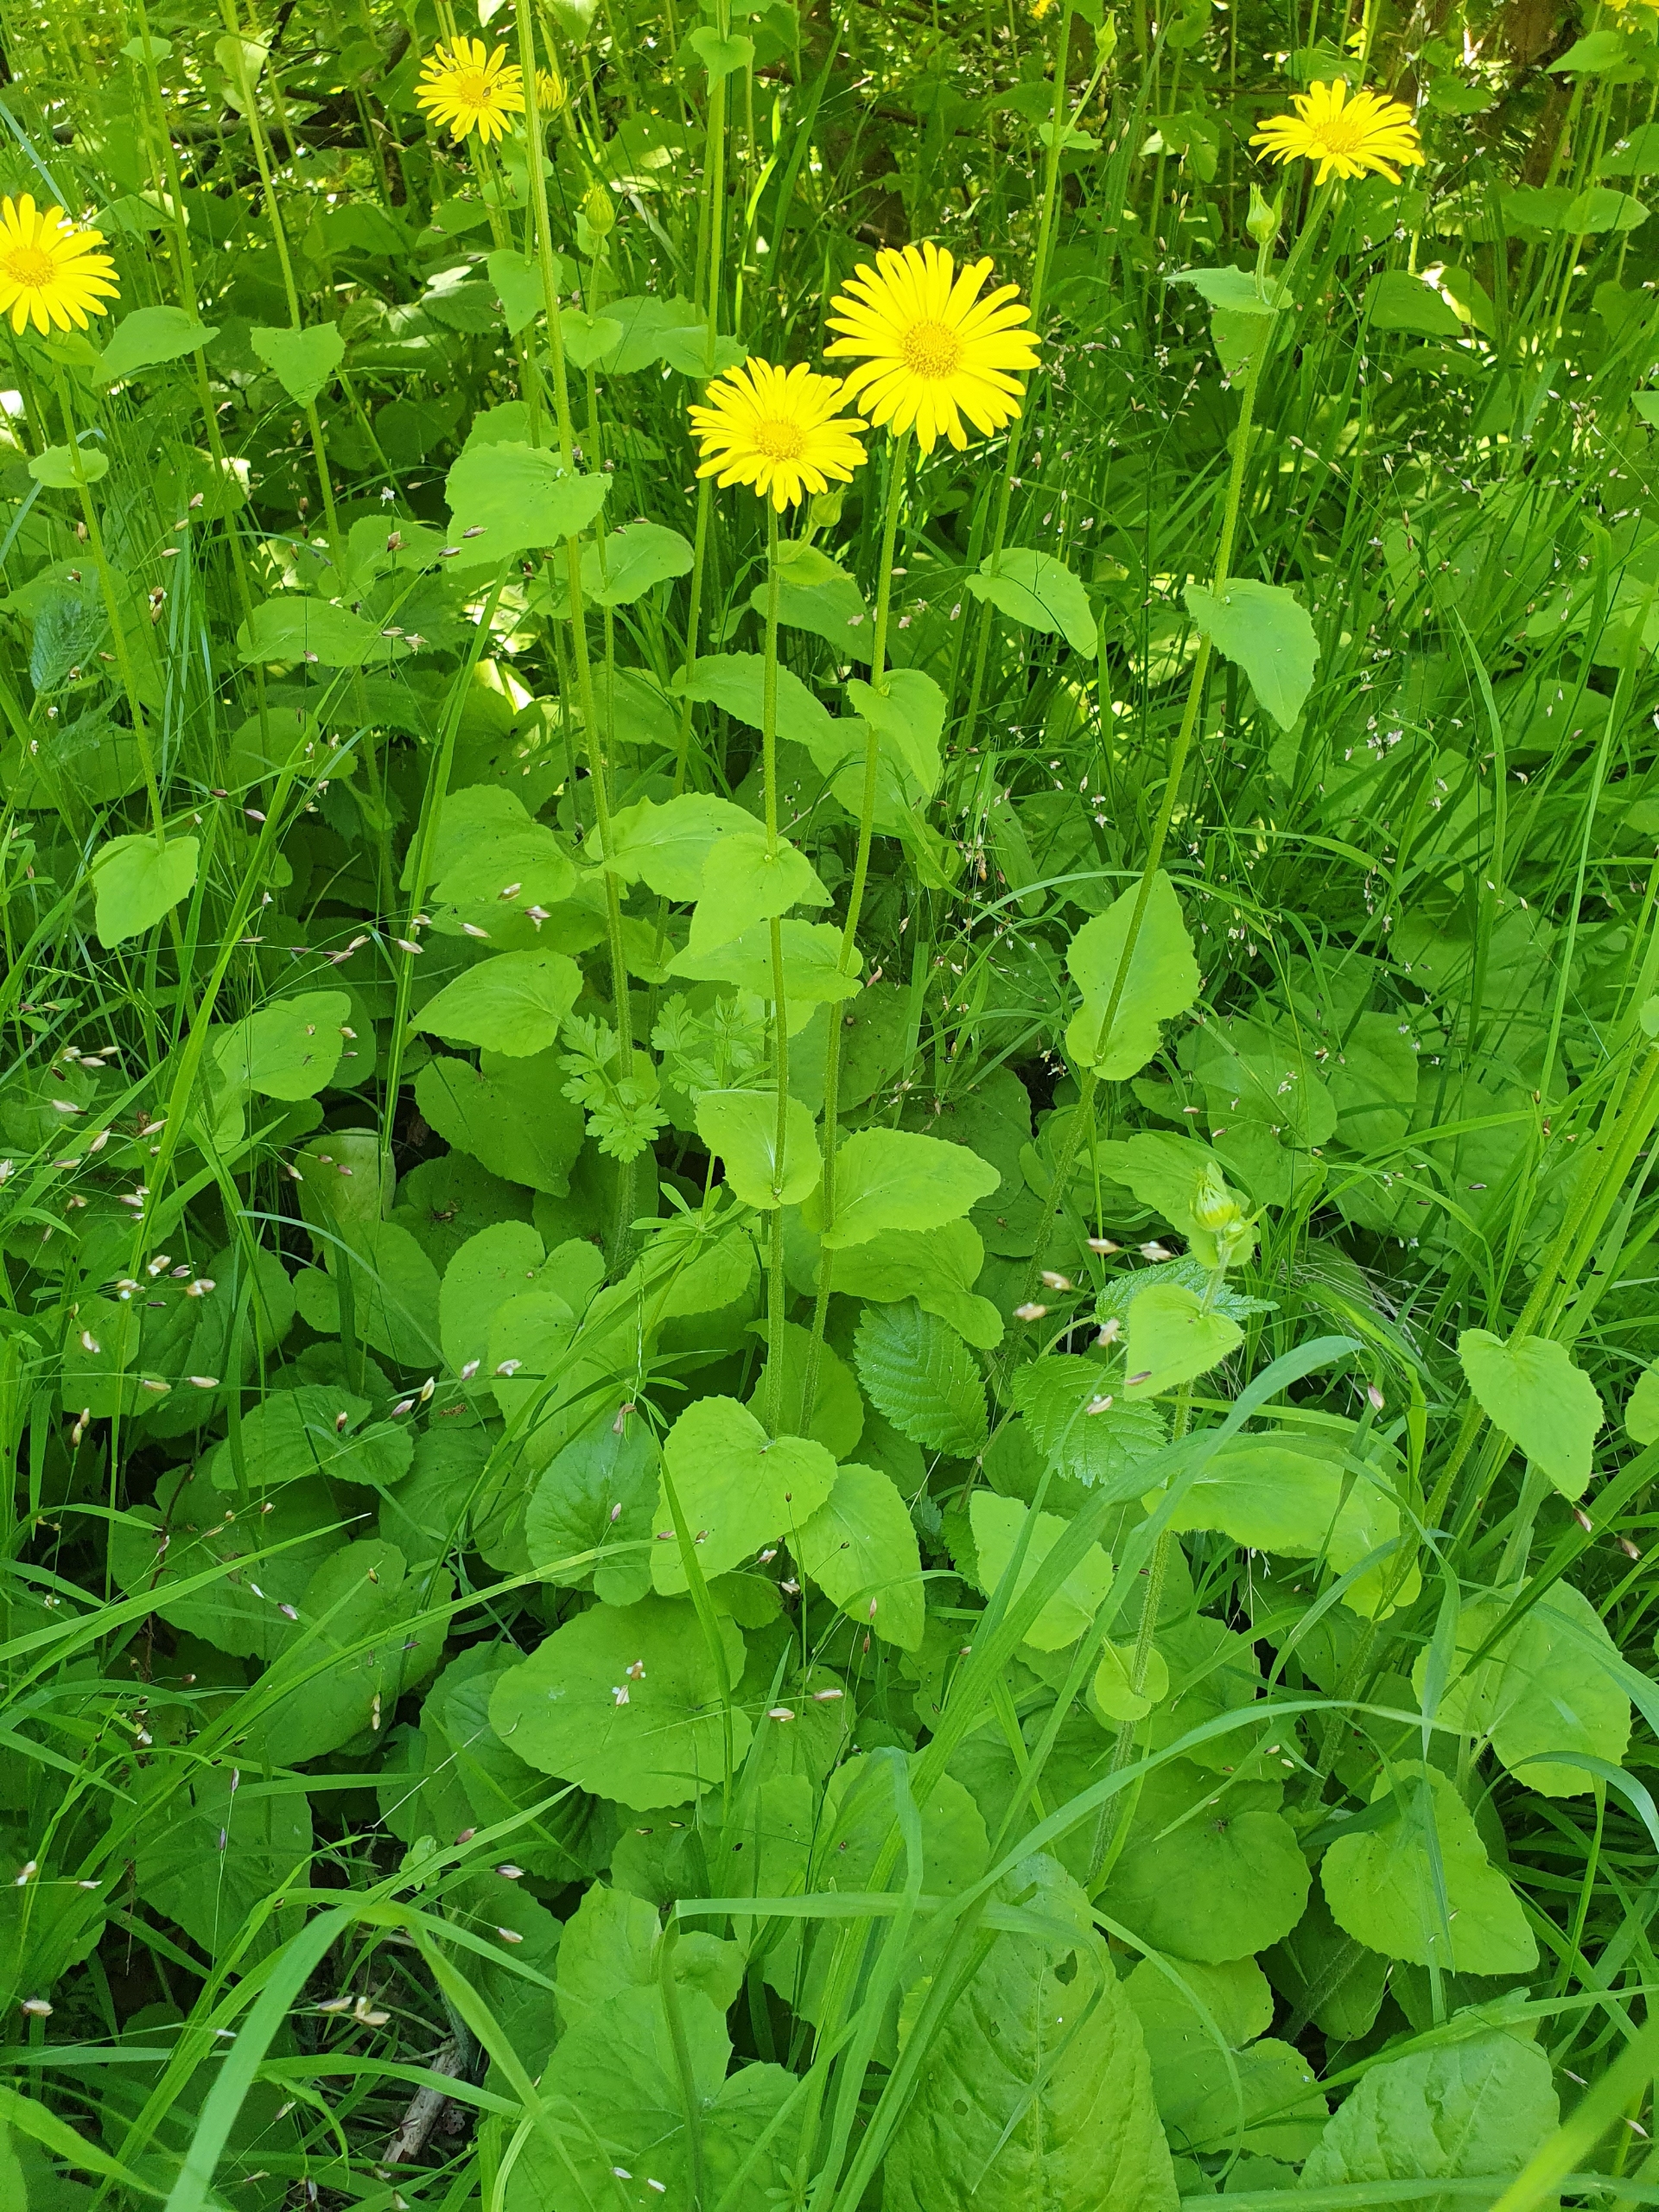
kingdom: Plantae
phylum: Tracheophyta
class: Magnoliopsida
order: Asterales
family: Asteraceae
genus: Doronicum
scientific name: Doronicum pardalianches
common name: Hjertebladet gemserod
